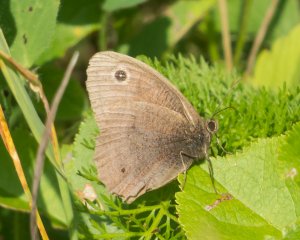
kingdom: Animalia
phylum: Arthropoda
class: Insecta
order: Lepidoptera
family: Nymphalidae
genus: Cercyonis
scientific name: Cercyonis pegala
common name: Common Wood-Nymph
